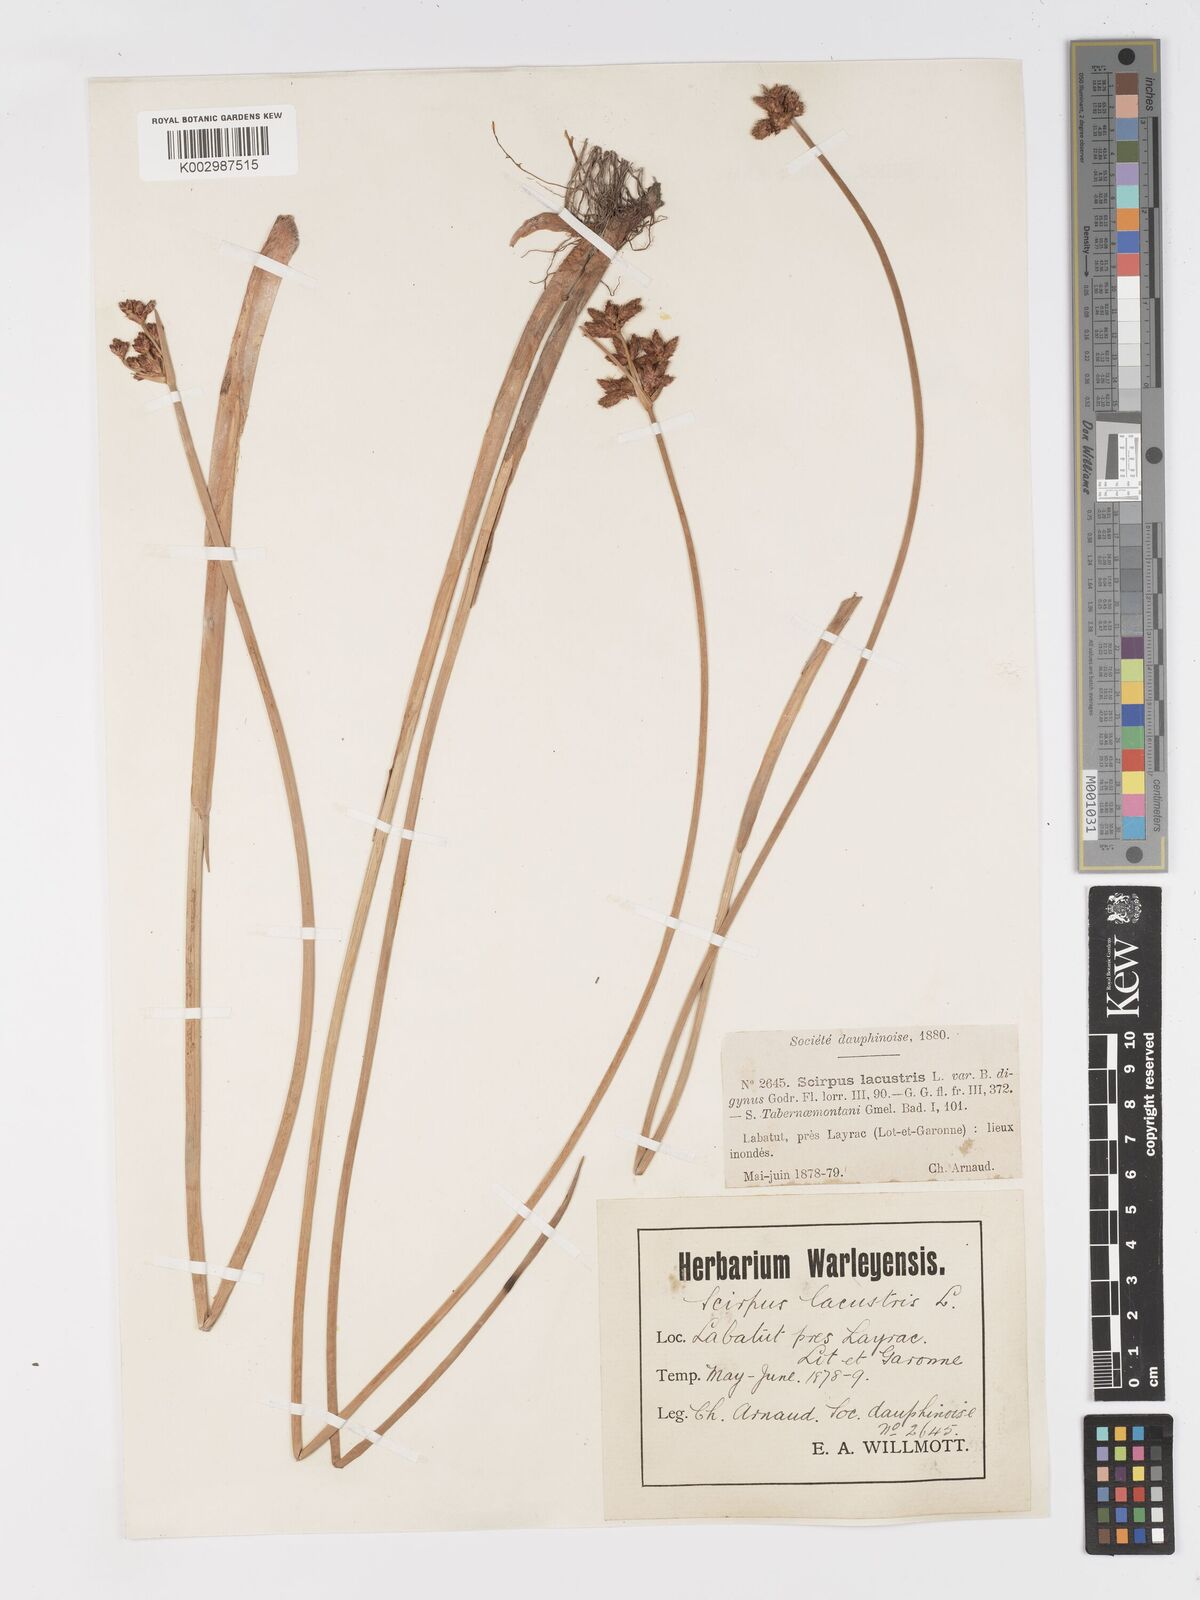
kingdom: Plantae
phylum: Tracheophyta
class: Liliopsida
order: Poales
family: Cyperaceae
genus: Schoenoplectus
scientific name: Schoenoplectus lacustris
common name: Common club-rush
